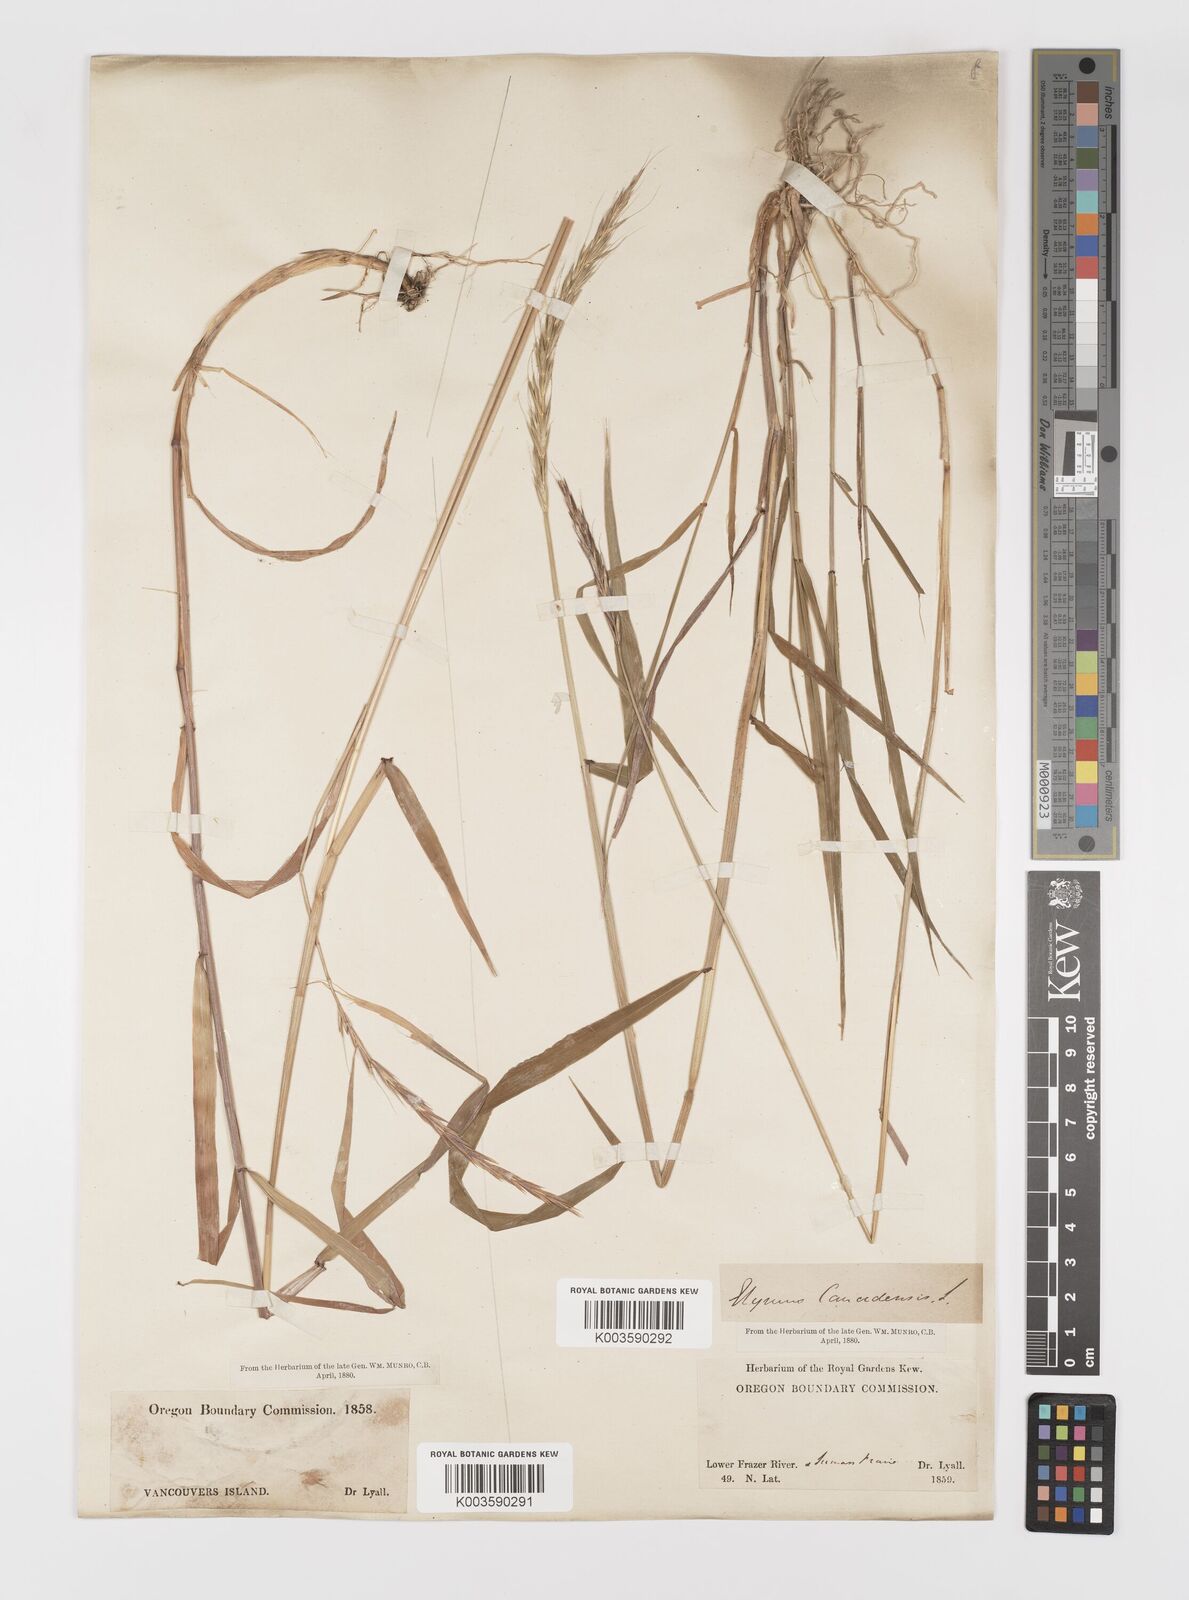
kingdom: Plantae
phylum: Tracheophyta
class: Liliopsida
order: Poales
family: Poaceae
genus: Elymus
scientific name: Elymus
